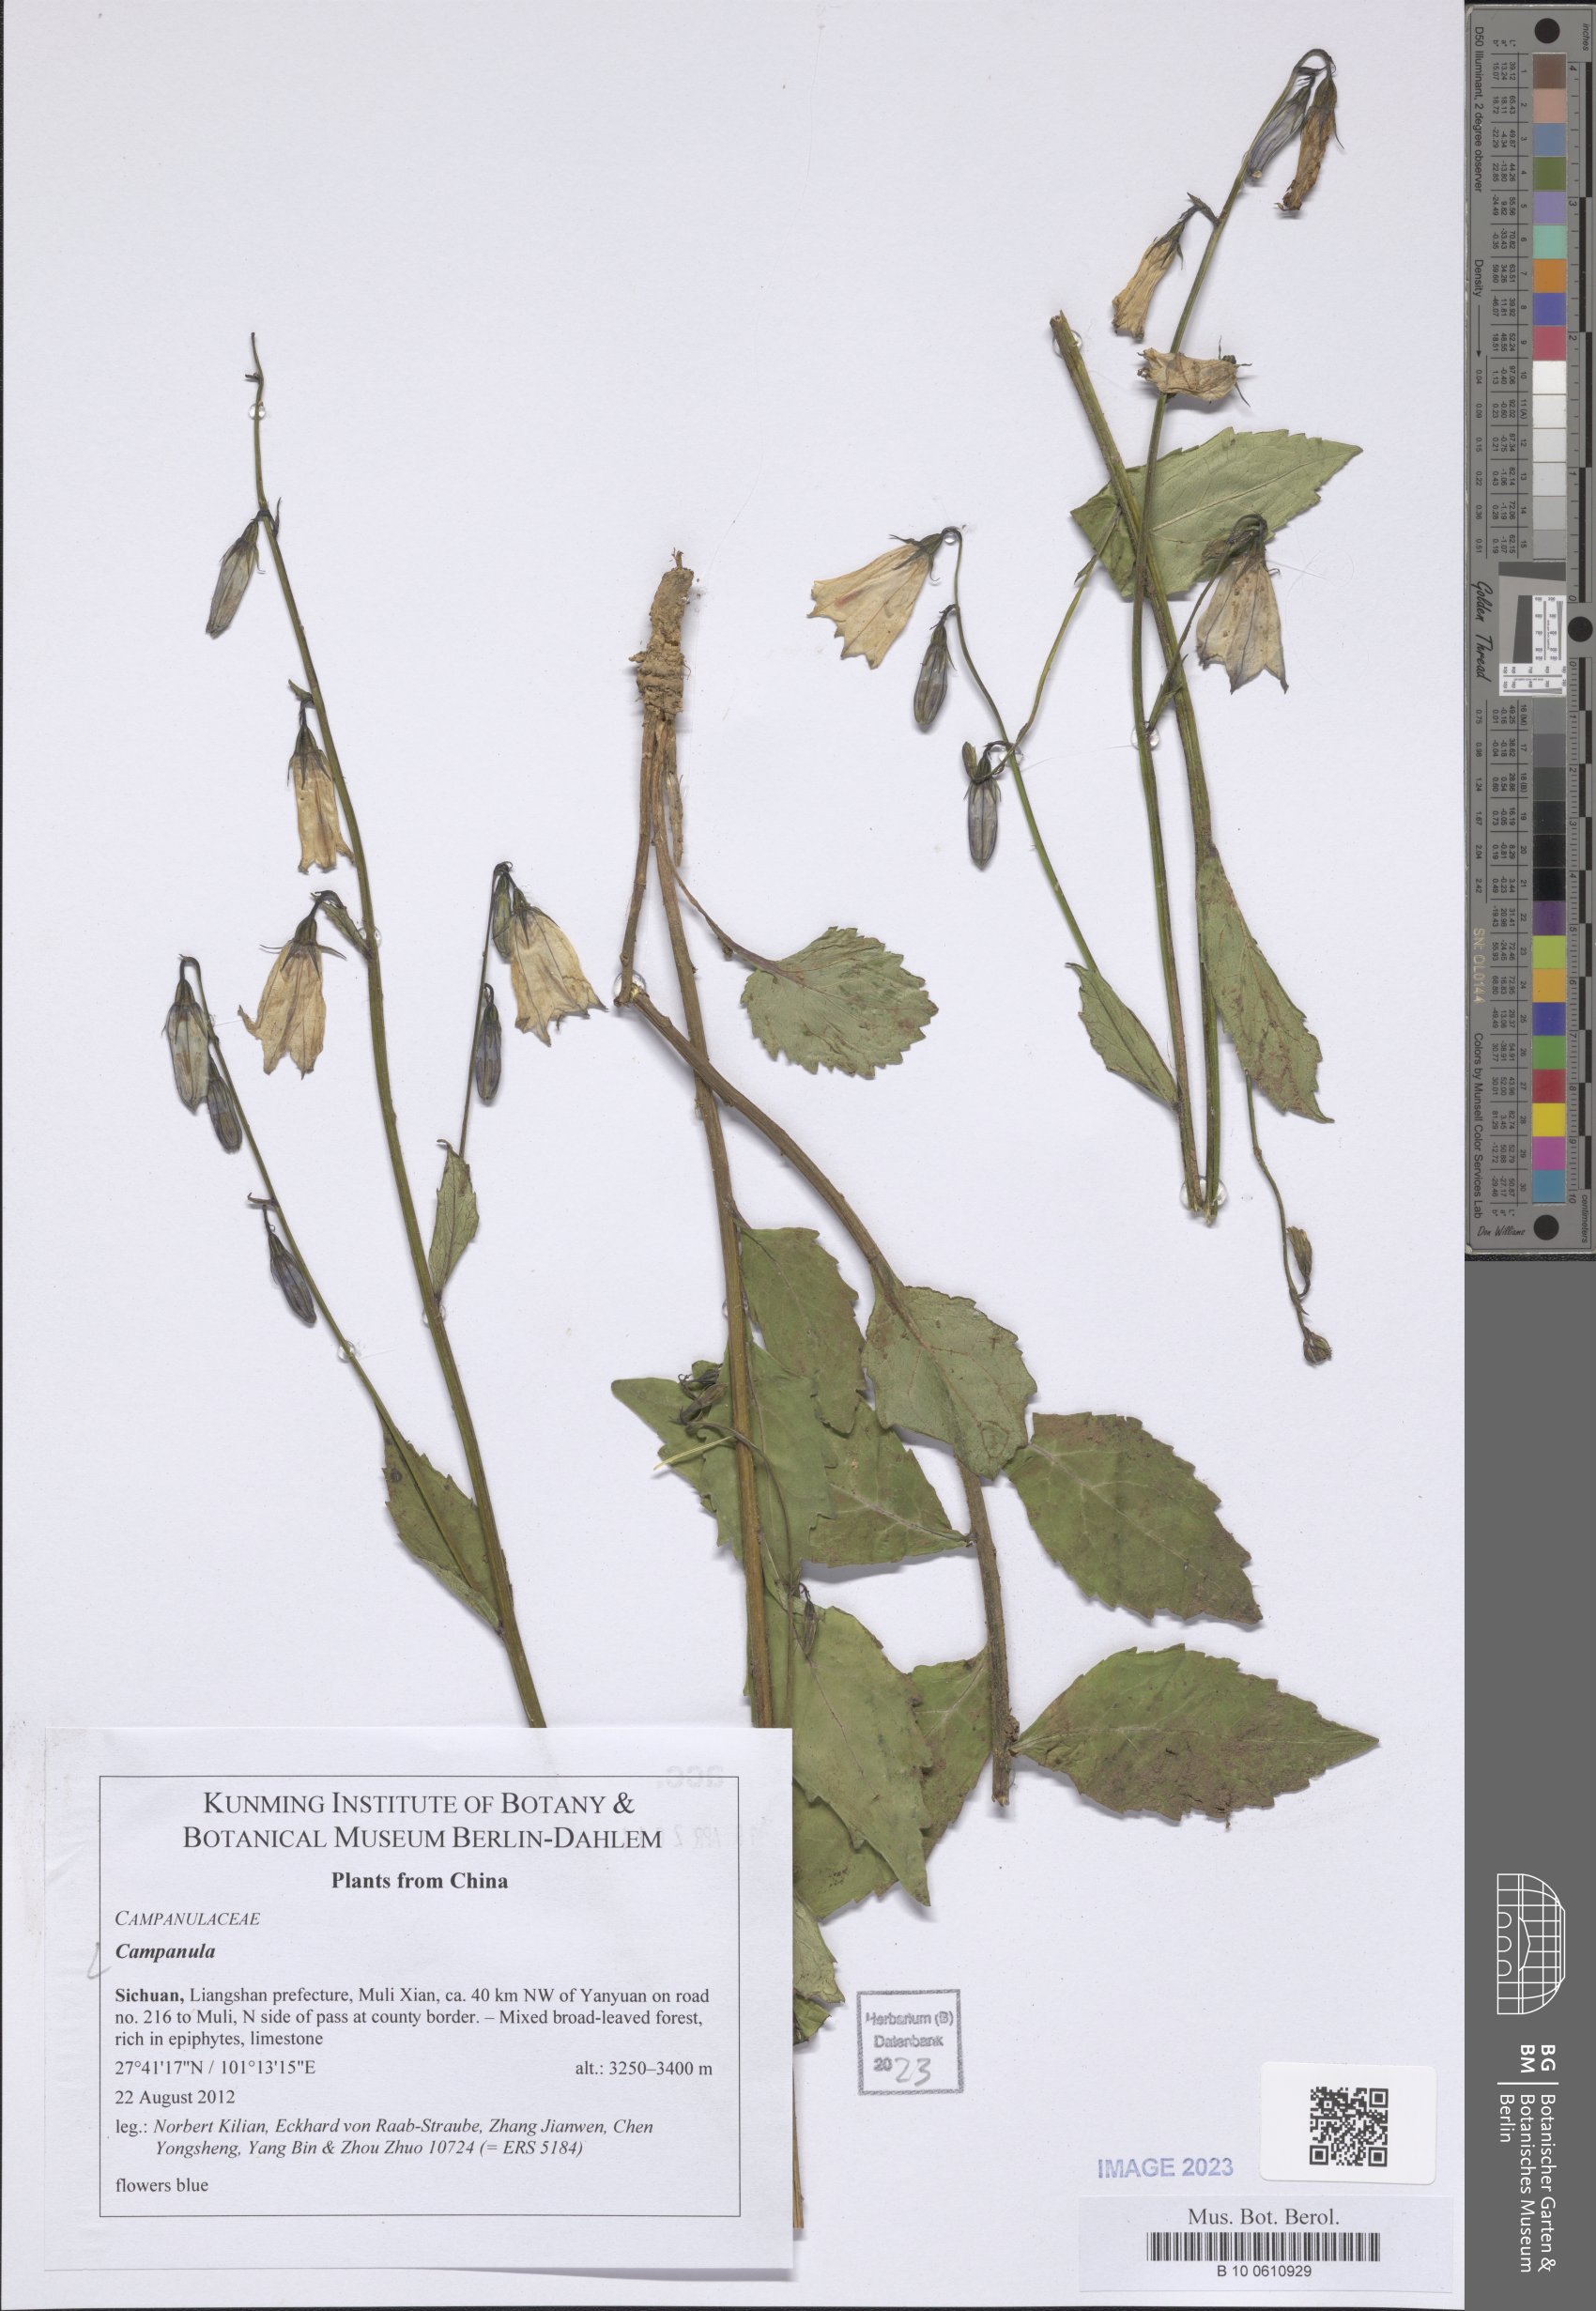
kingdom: Plantae
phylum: Tracheophyta
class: Magnoliopsida
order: Asterales
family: Campanulaceae
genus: Campanula
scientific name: Campanula
